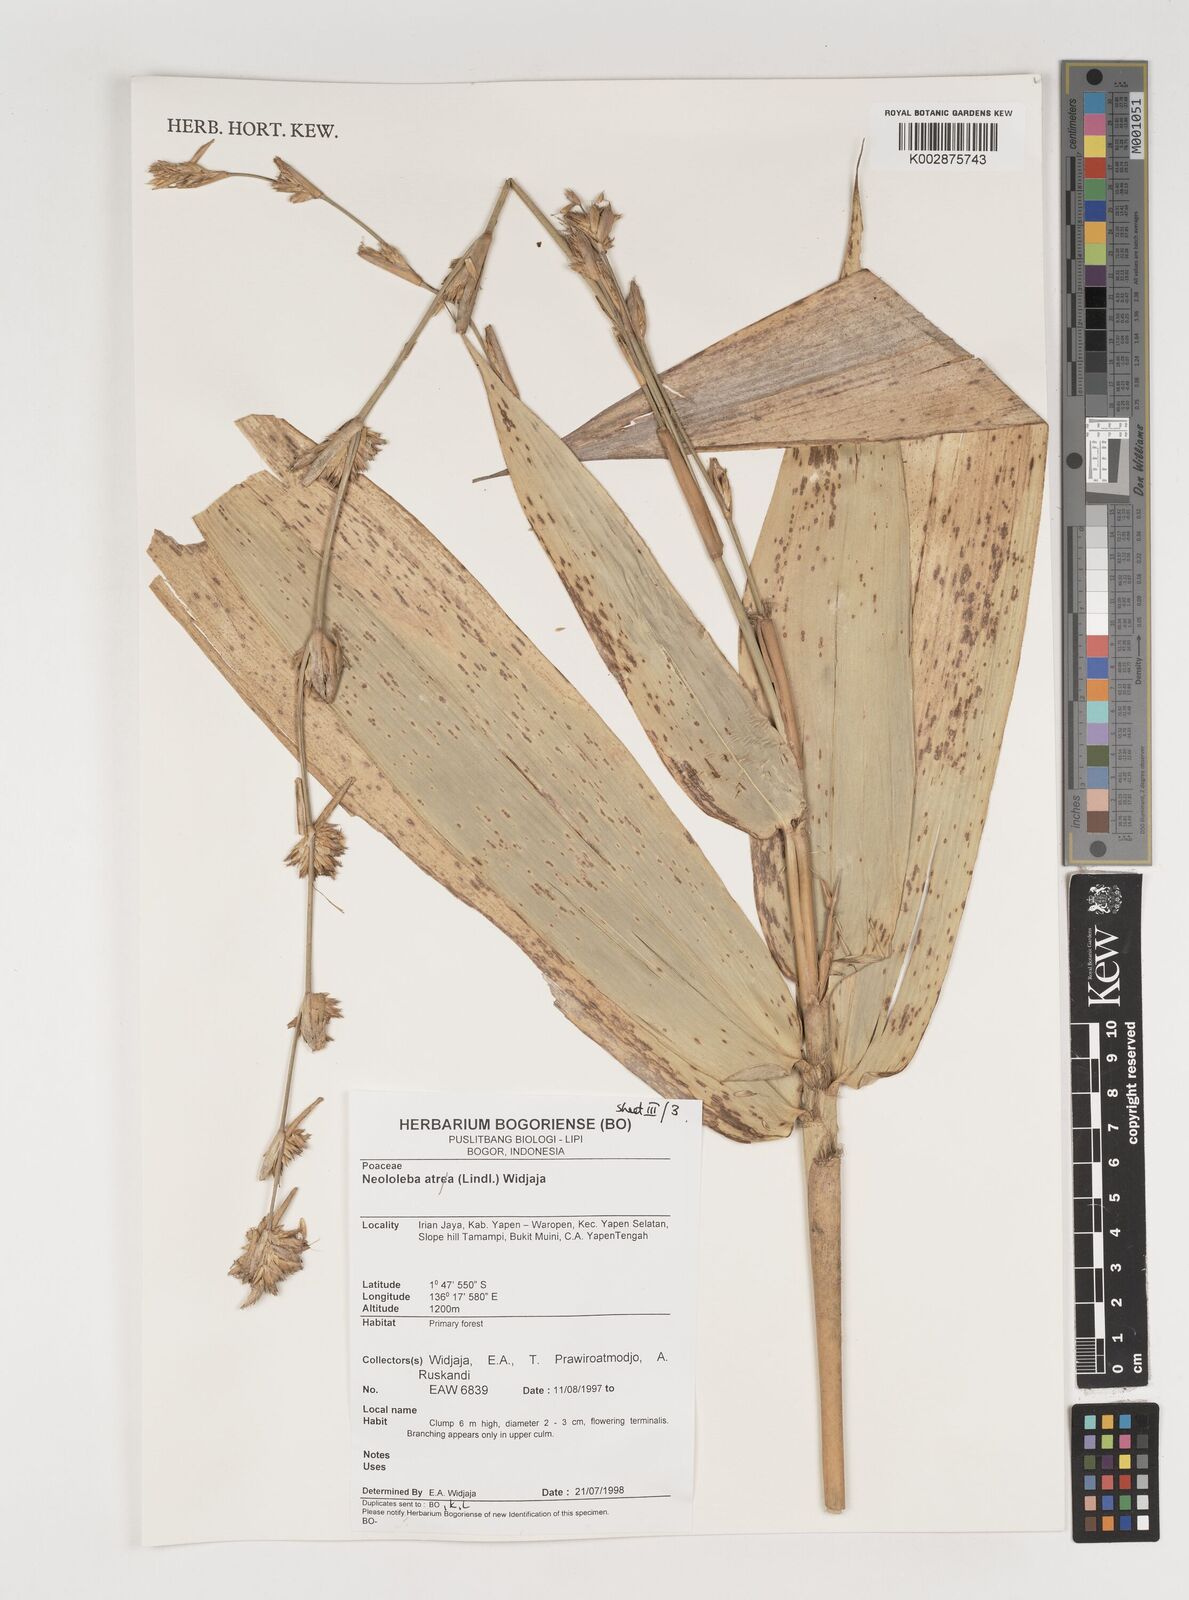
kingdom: Plantae
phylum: Tracheophyta
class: Liliopsida
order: Poales
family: Poaceae
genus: Neololeba
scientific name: Neololeba atra
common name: Cape bamboo
